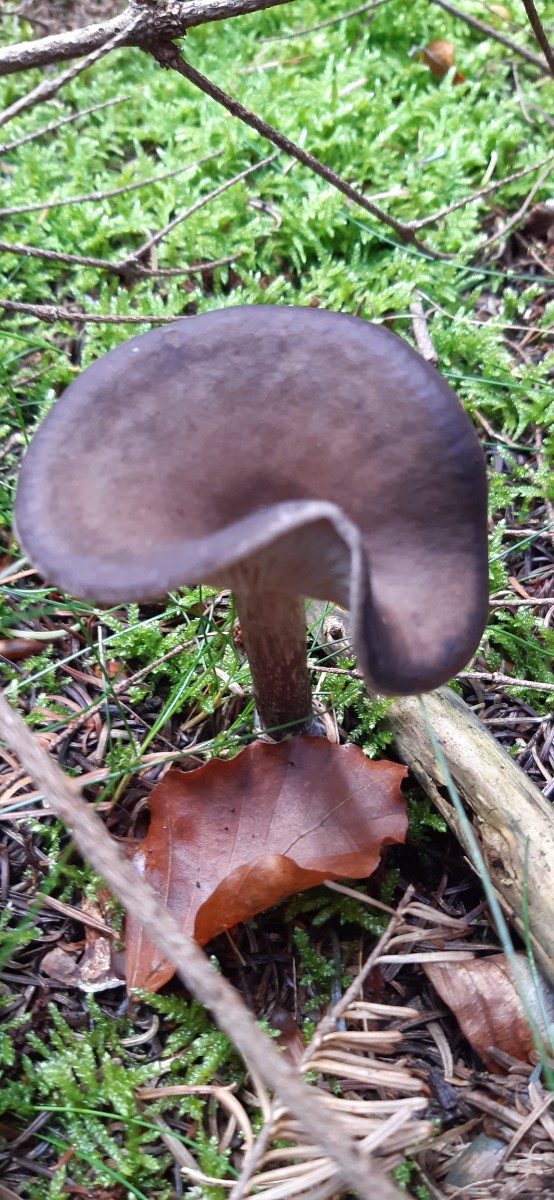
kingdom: Fungi
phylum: Basidiomycota
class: Agaricomycetes
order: Agaricales
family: Pseudoclitocybaceae
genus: Pseudoclitocybe
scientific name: Pseudoclitocybe cyathiformis
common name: almindelig bægertragthat
